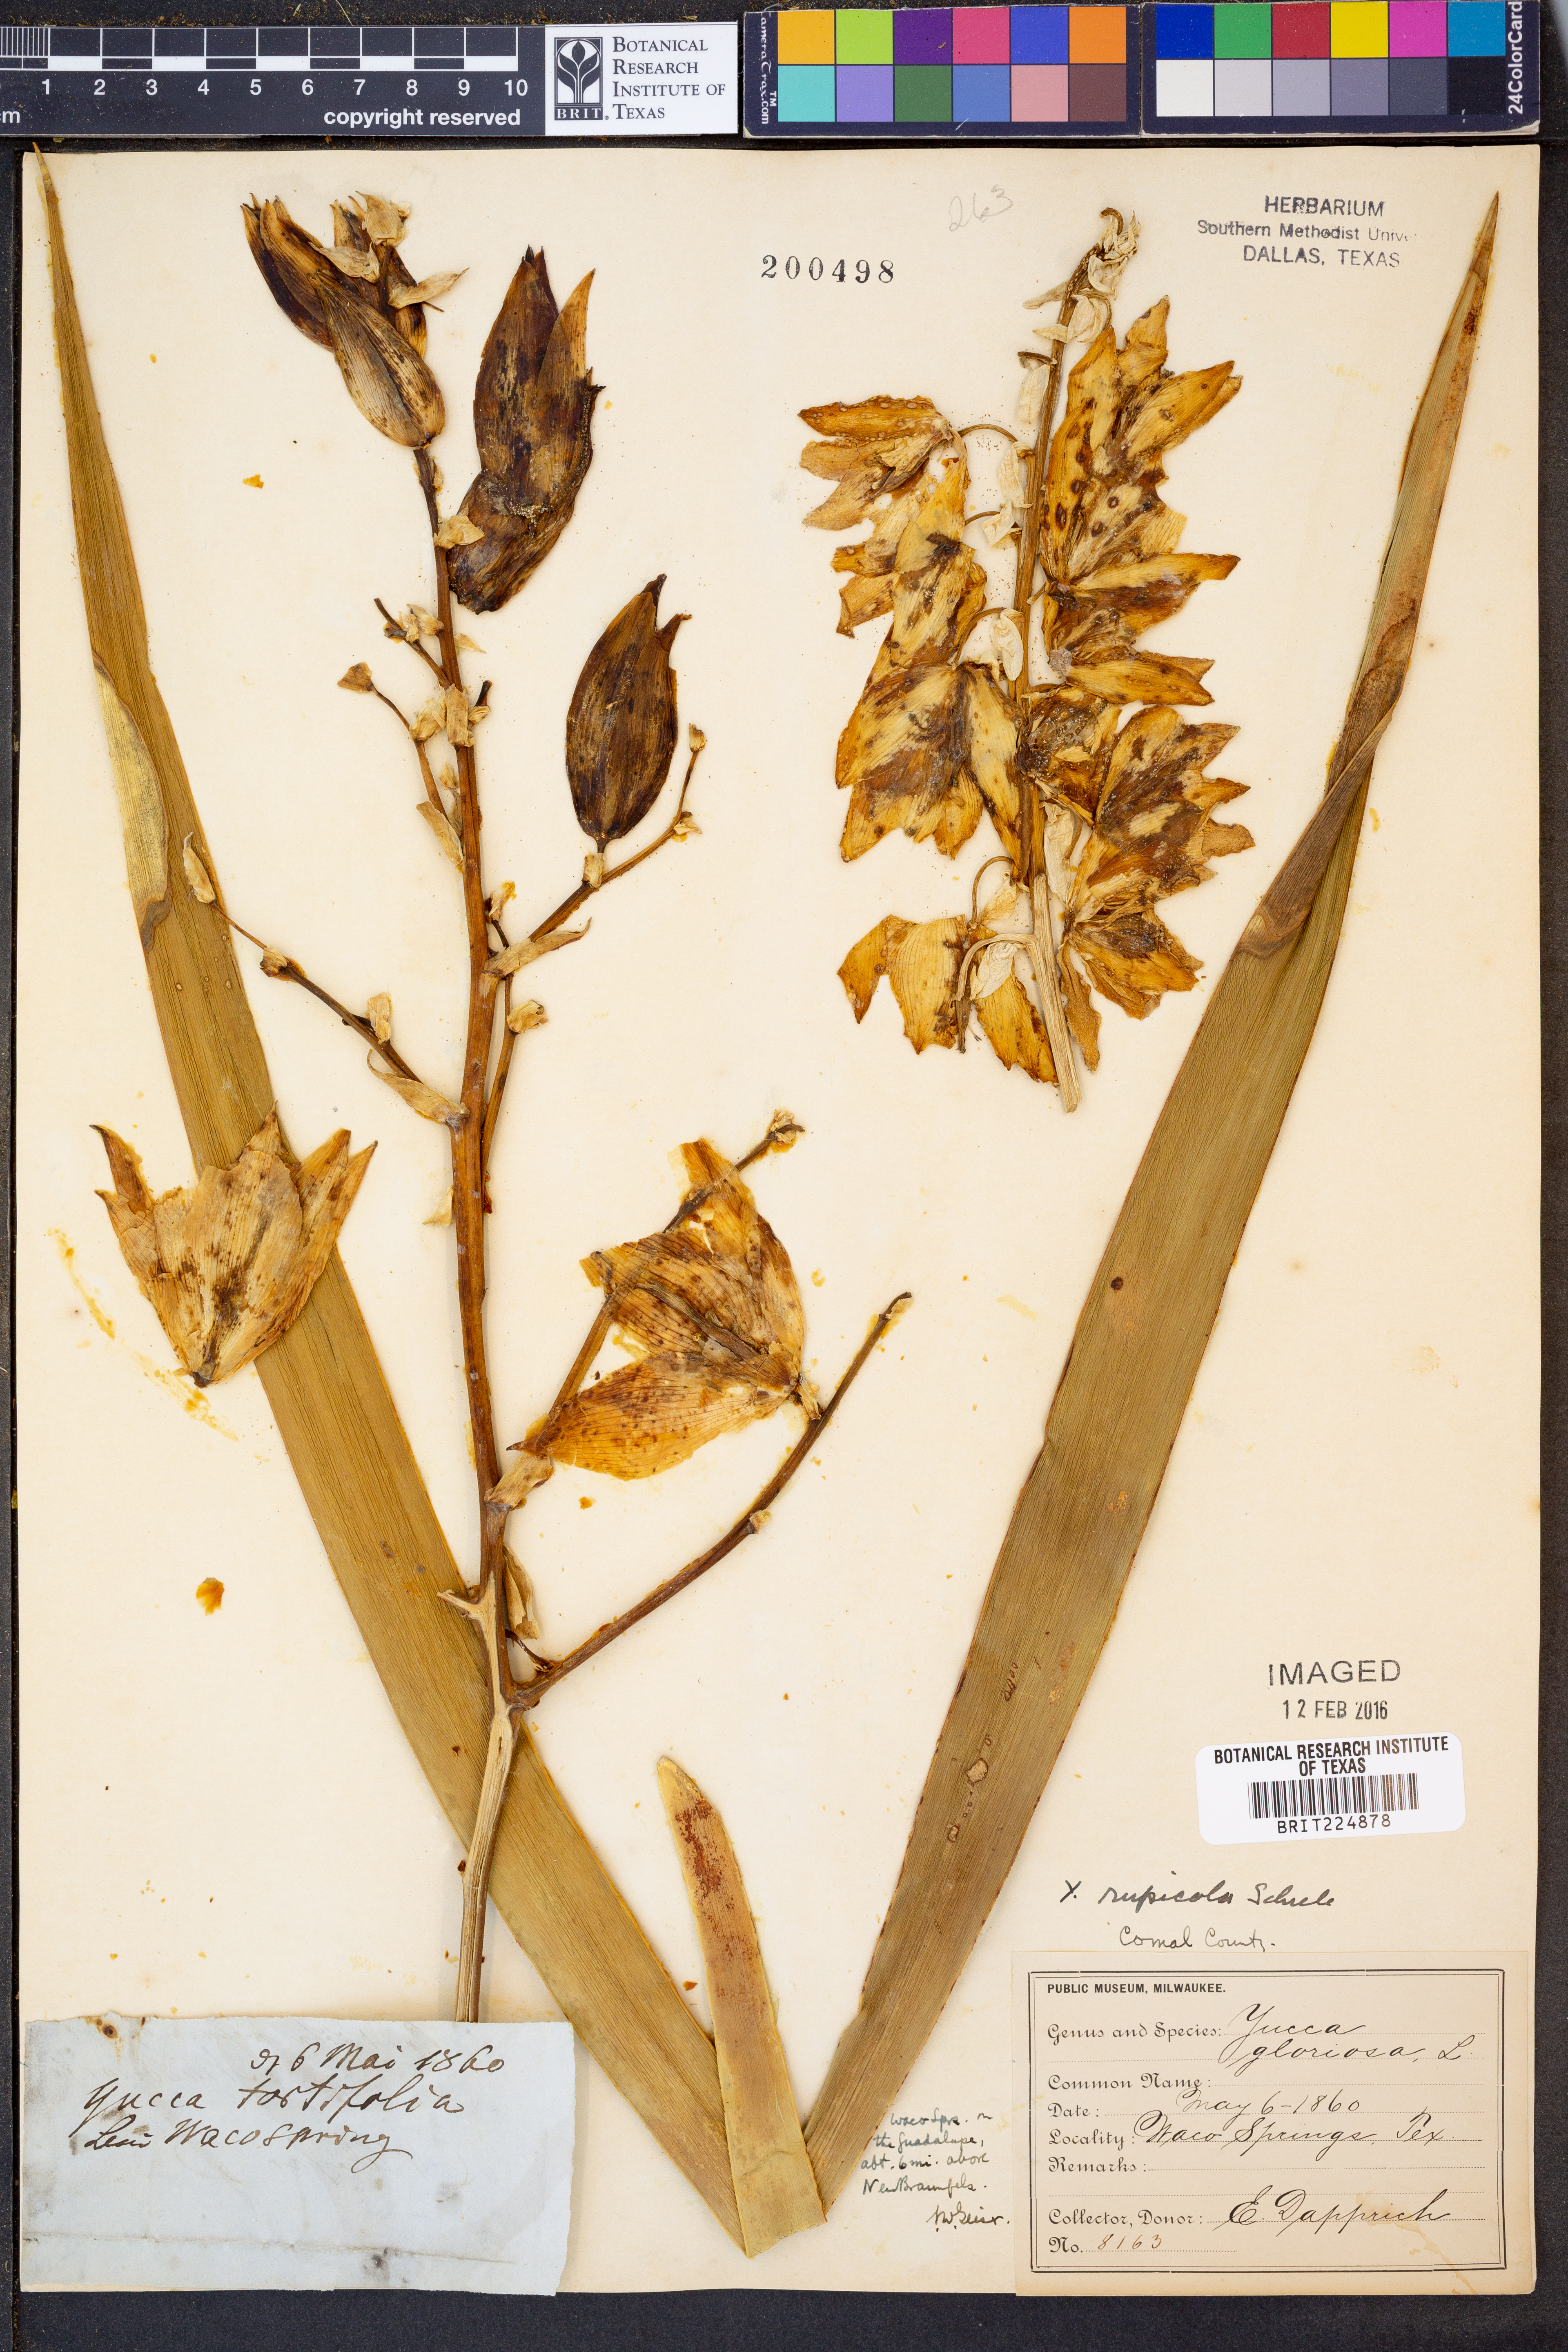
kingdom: Plantae
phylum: Tracheophyta
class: Liliopsida
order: Asparagales
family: Asparagaceae
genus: Yucca
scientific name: Yucca rupicola
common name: Twisted-leaf spanish-dagger
